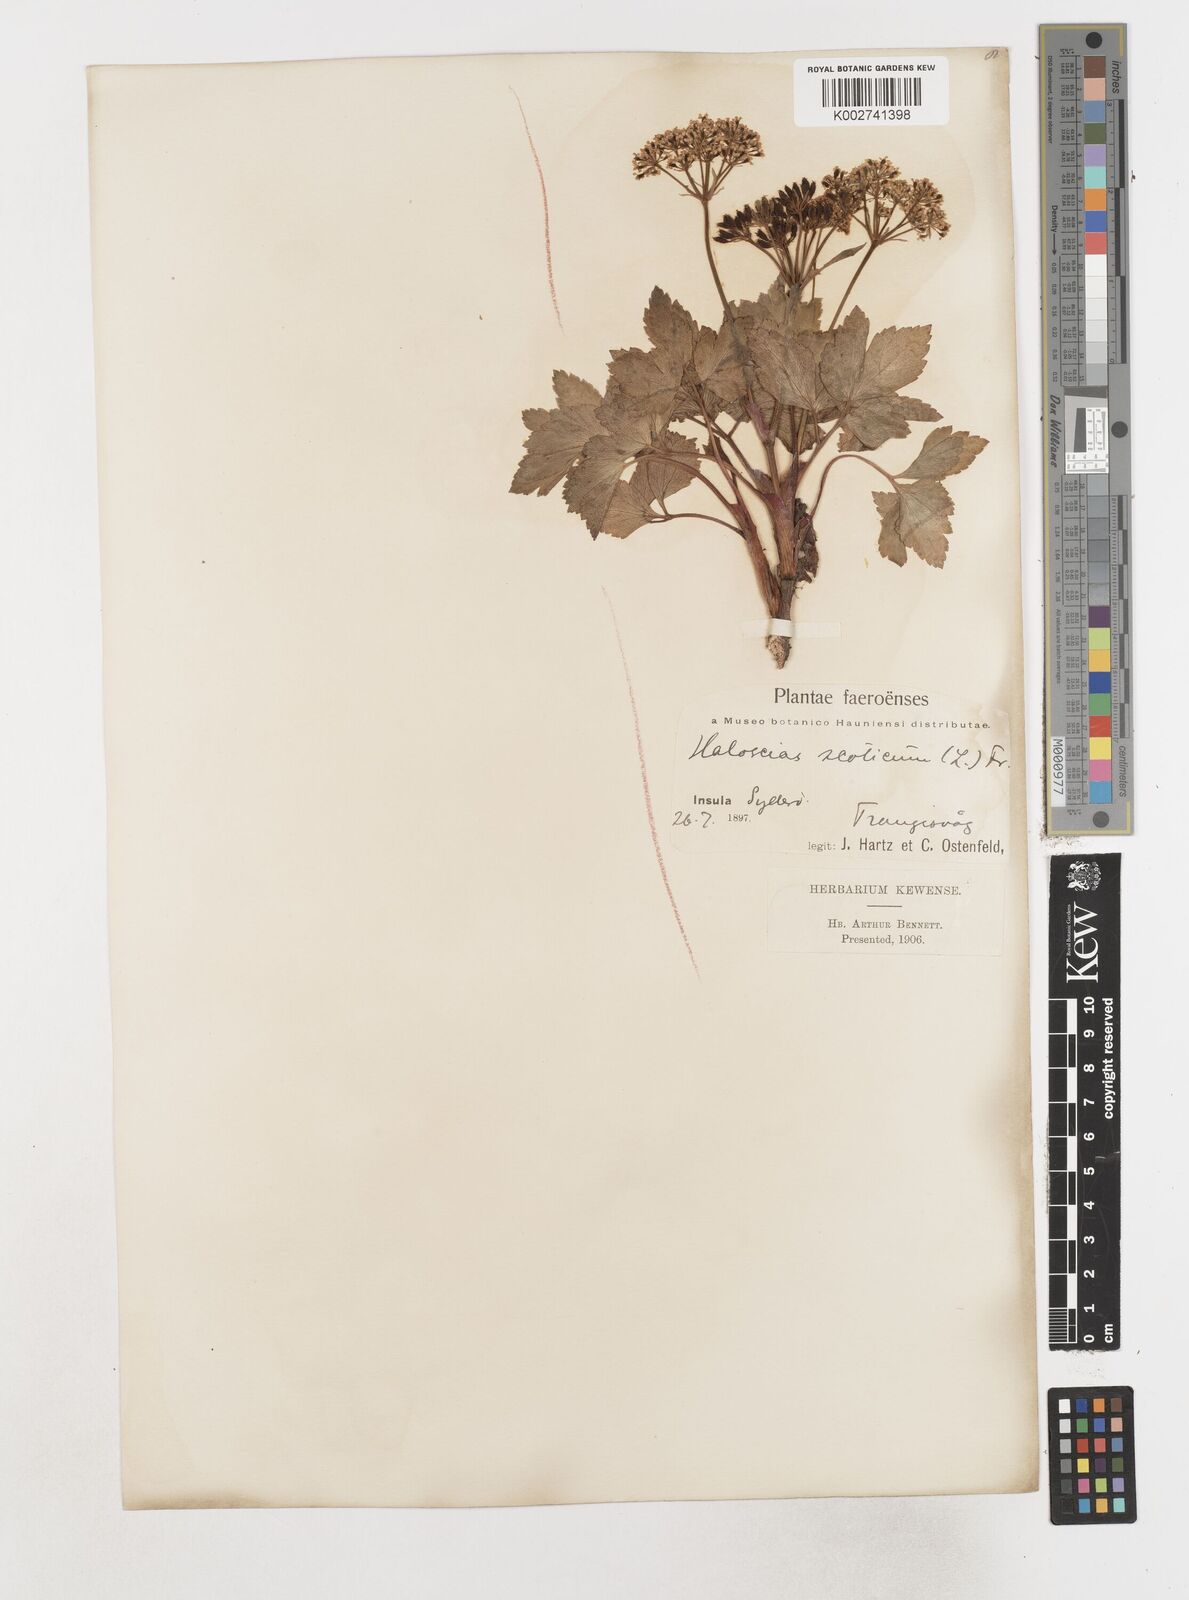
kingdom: Plantae
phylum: Tracheophyta
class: Magnoliopsida
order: Apiales
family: Apiaceae
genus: Ligusticum
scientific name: Ligusticum scothicum
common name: Beach lovage
